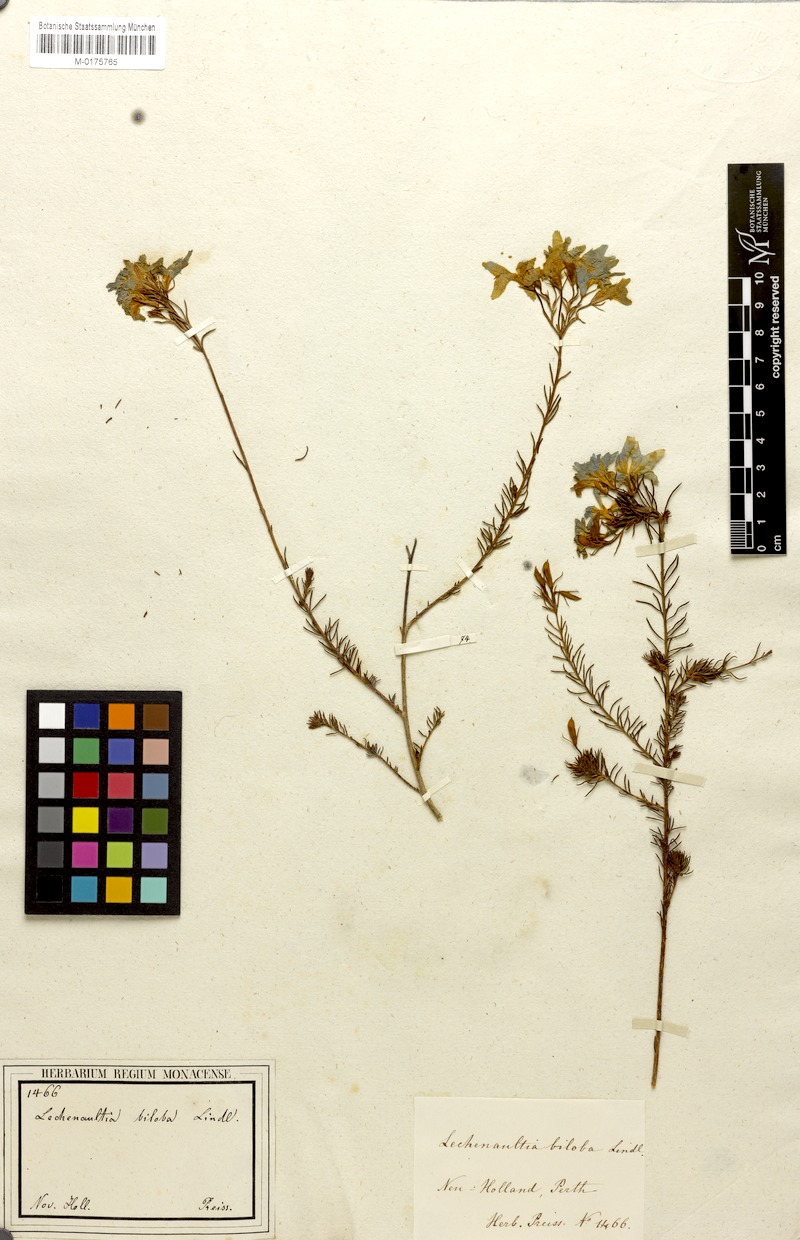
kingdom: Plantae
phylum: Tracheophyta
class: Magnoliopsida
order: Asterales
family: Goodeniaceae
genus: Lechenaultia
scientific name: Lechenaultia biloba
